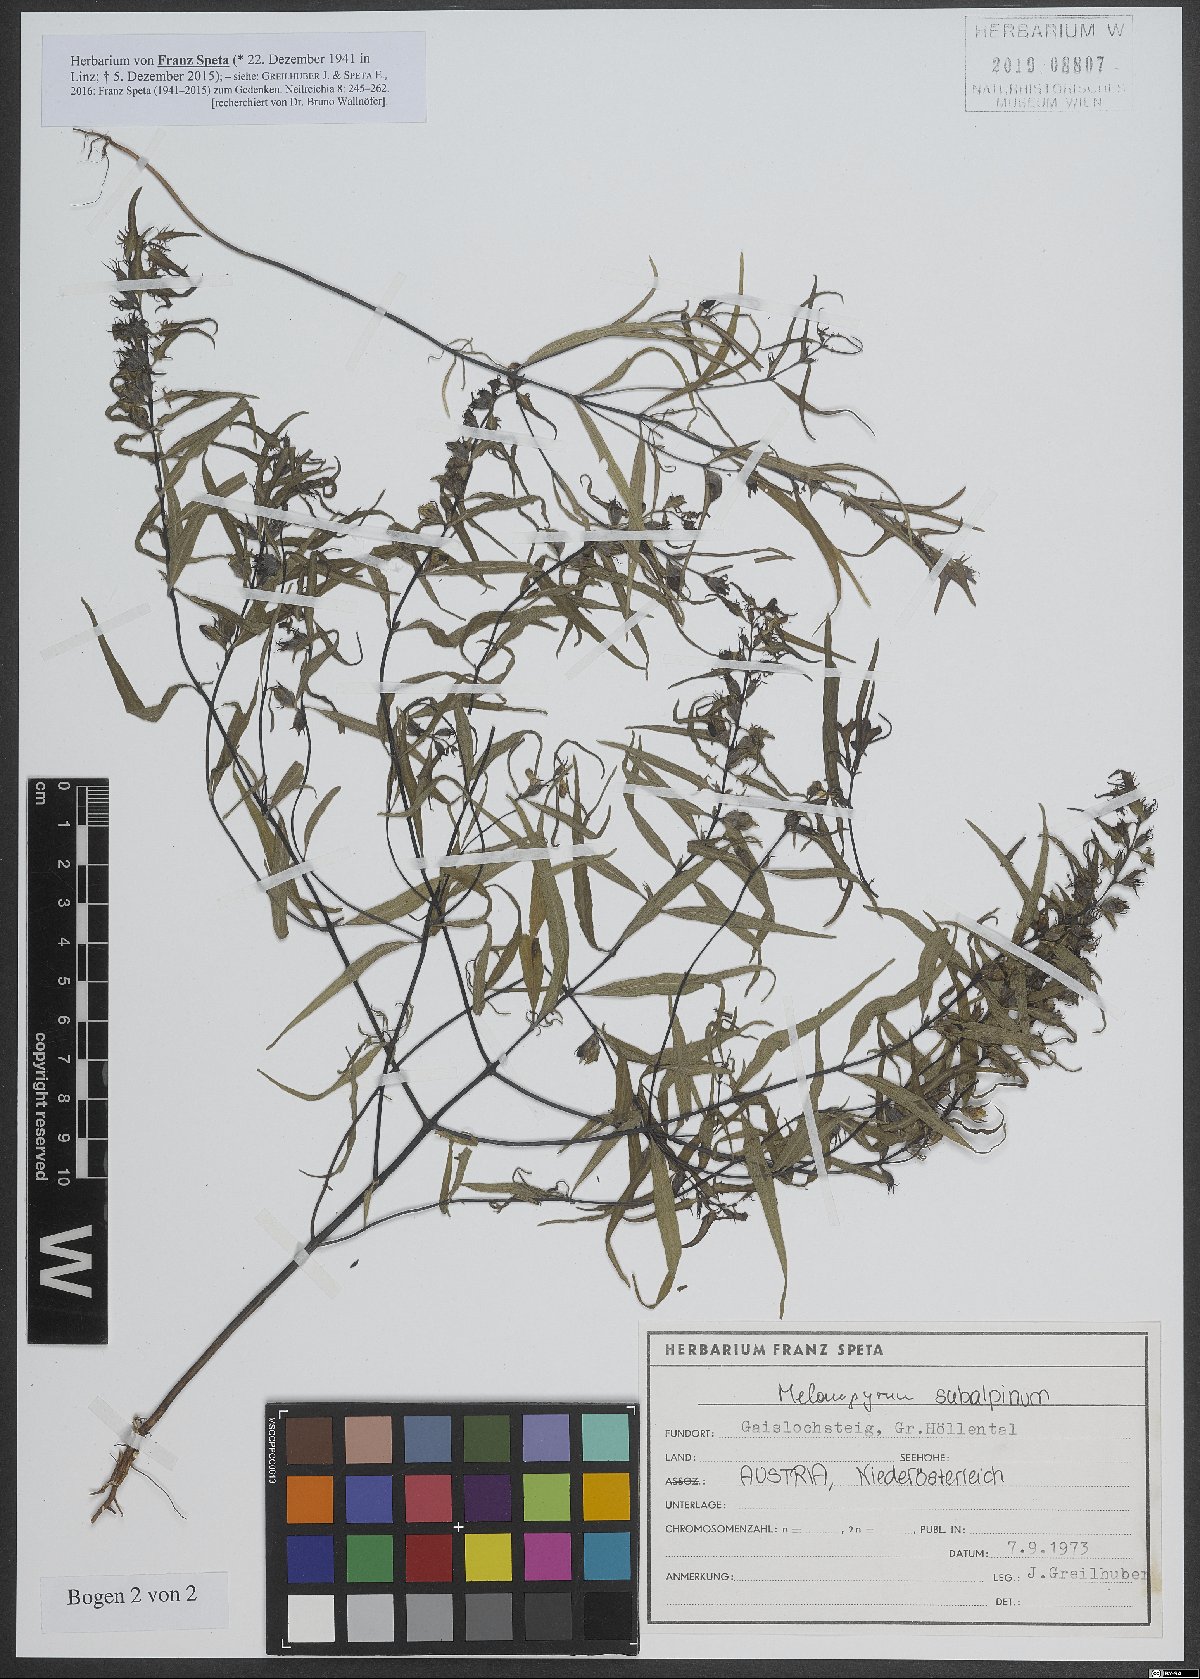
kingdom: Plantae
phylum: Tracheophyta
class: Magnoliopsida
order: Lamiales
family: Orobanchaceae
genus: Melampyrum
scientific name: Melampyrum subalpinum
